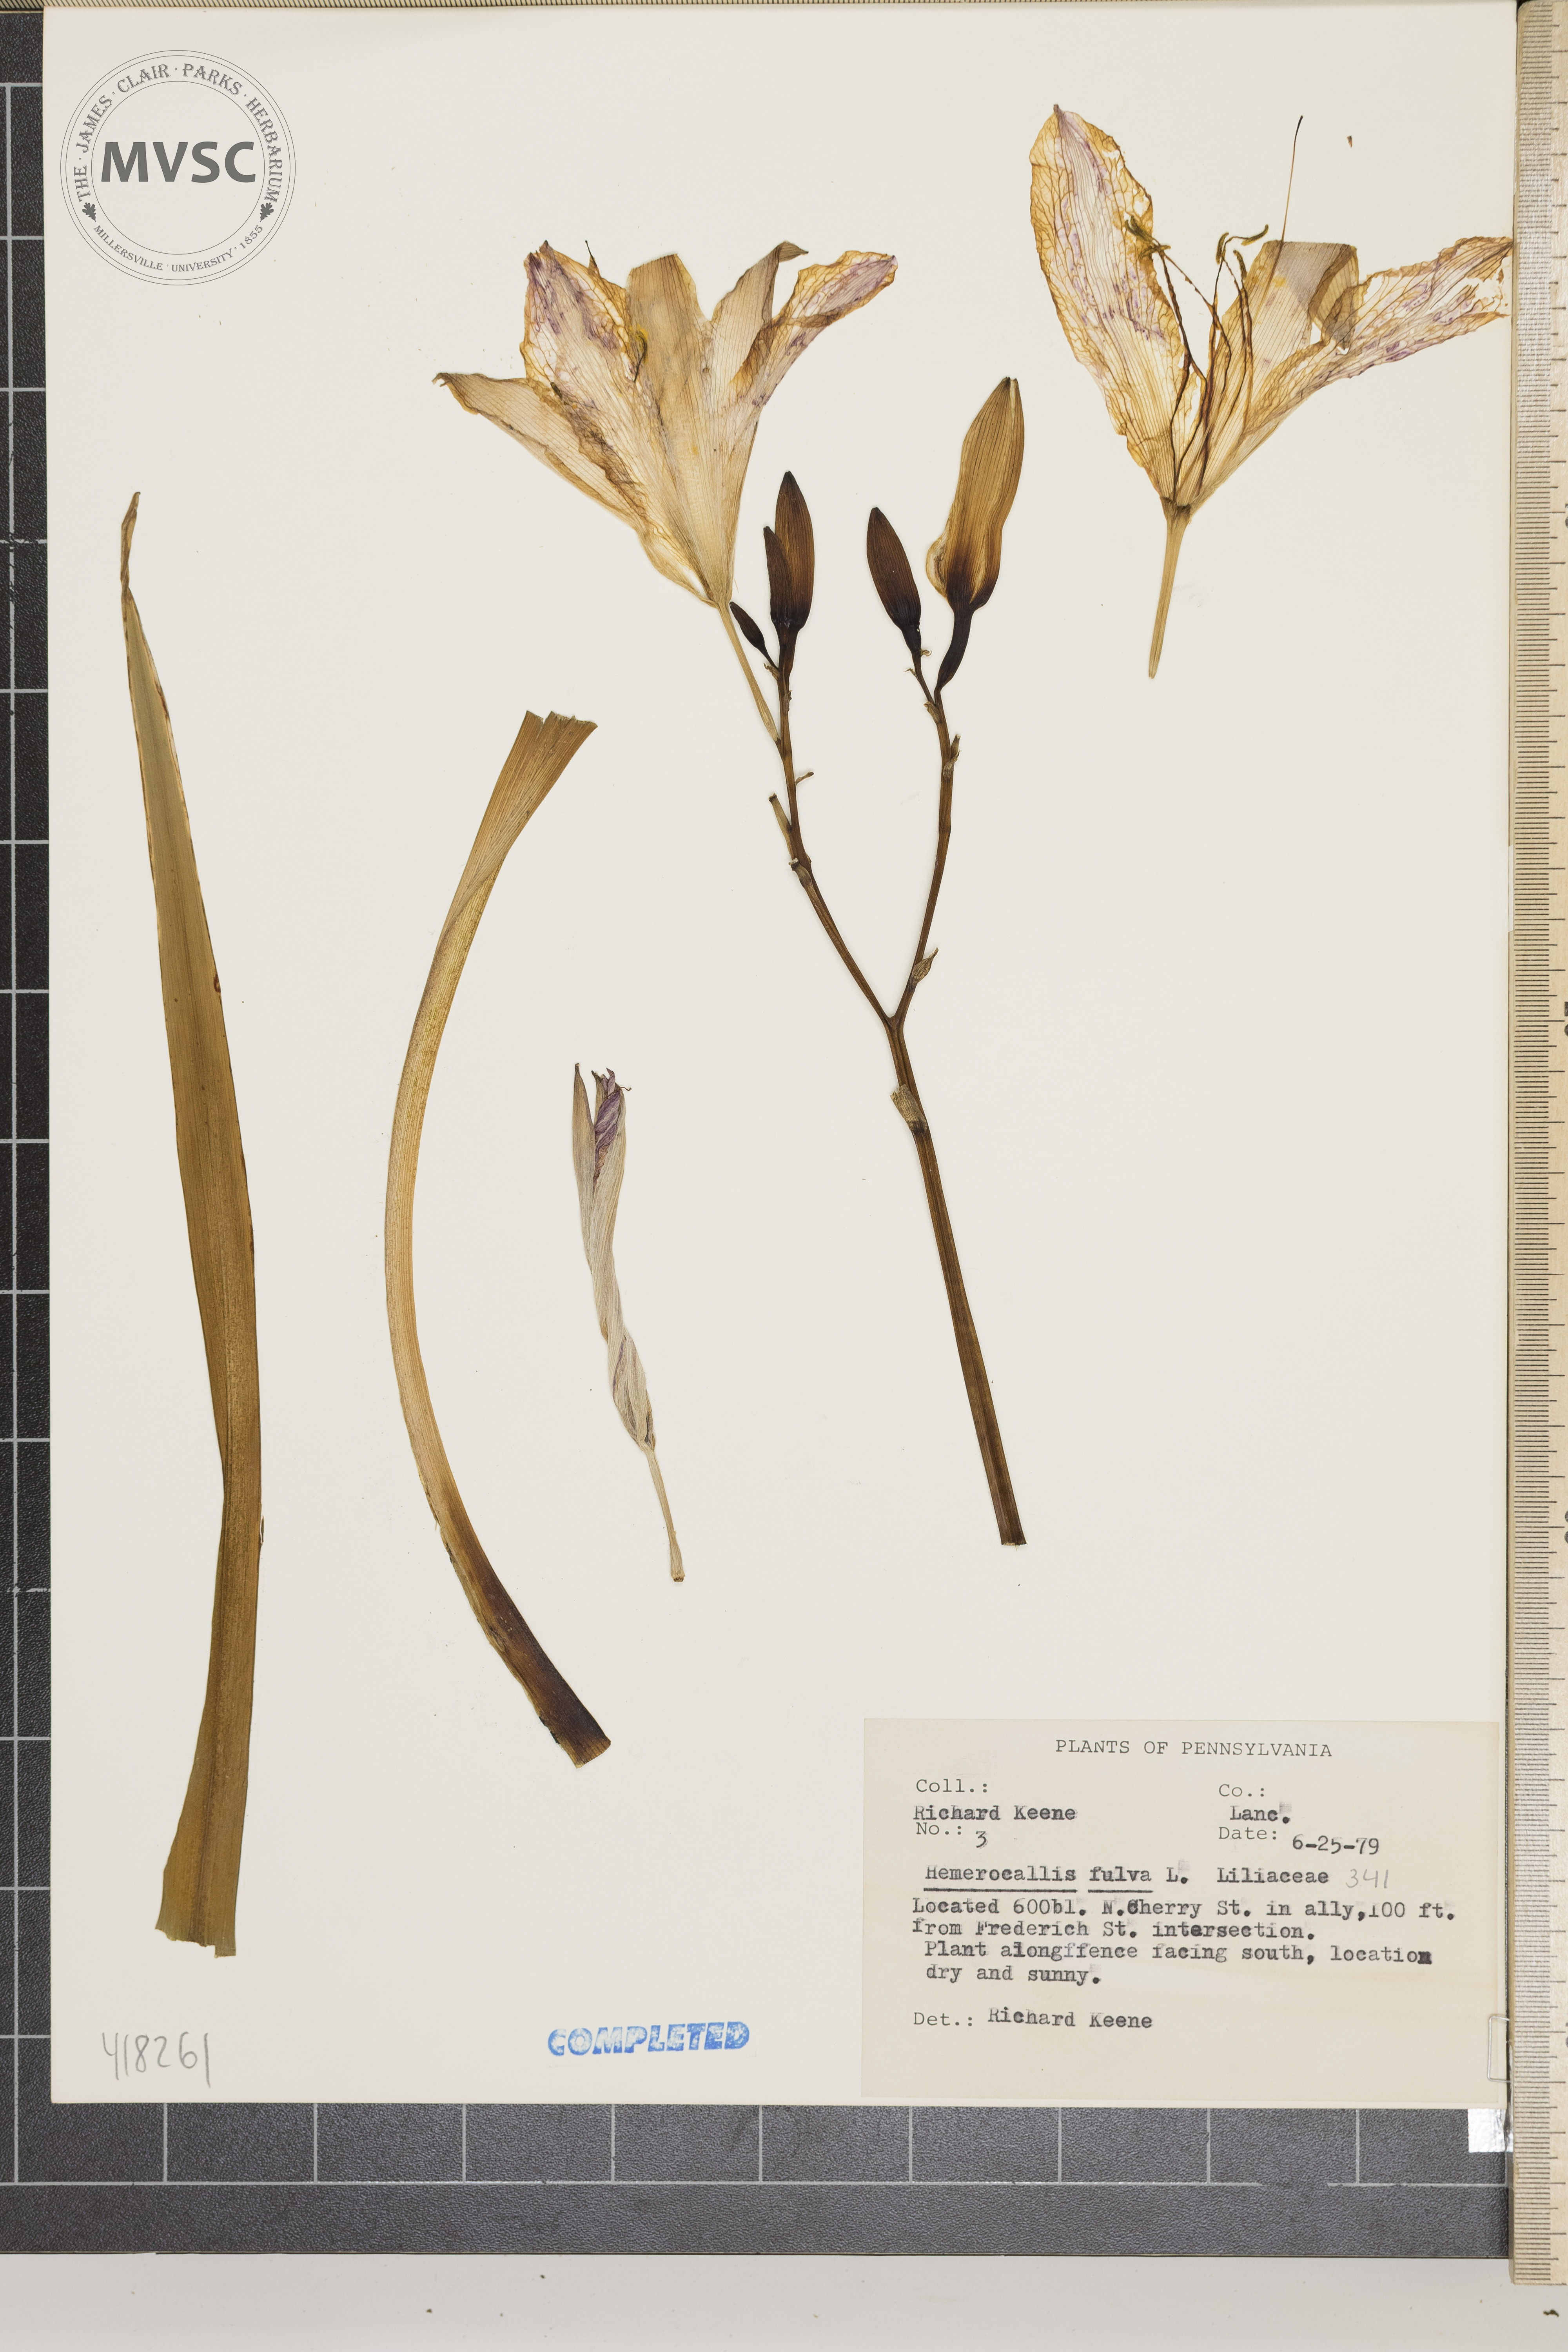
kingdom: Plantae
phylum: Tracheophyta
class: Liliopsida
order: Asparagales
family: Asphodelaceae
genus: Hemerocallis
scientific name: Hemerocallis fulva
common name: Orange Day-lily
